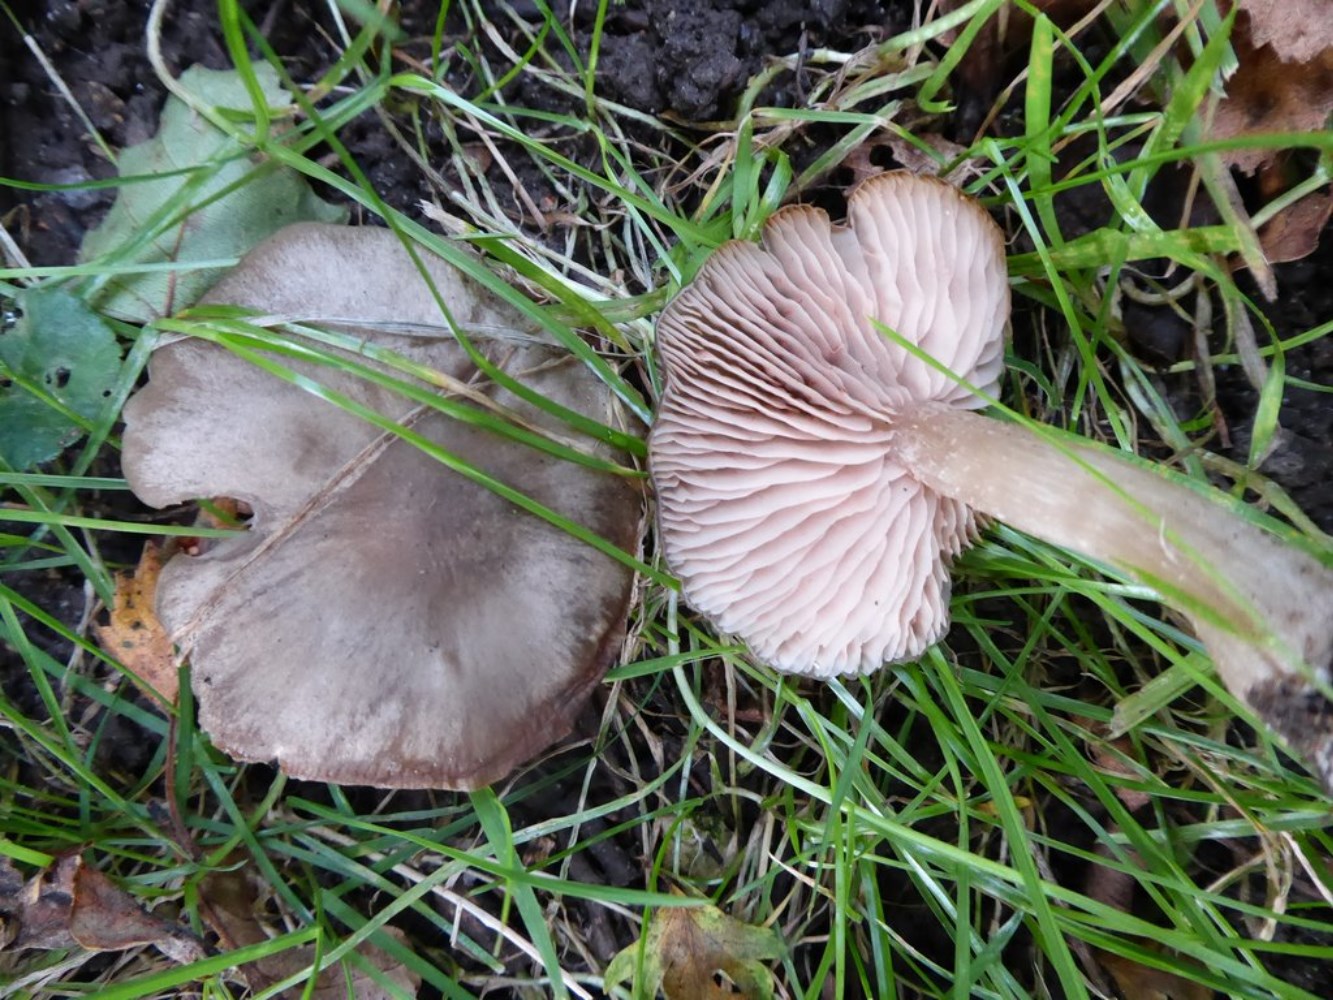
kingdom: Fungi
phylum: Basidiomycota
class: Agaricomycetes
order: Agaricales
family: Entolomataceae
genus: Entoloma
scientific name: Entoloma
